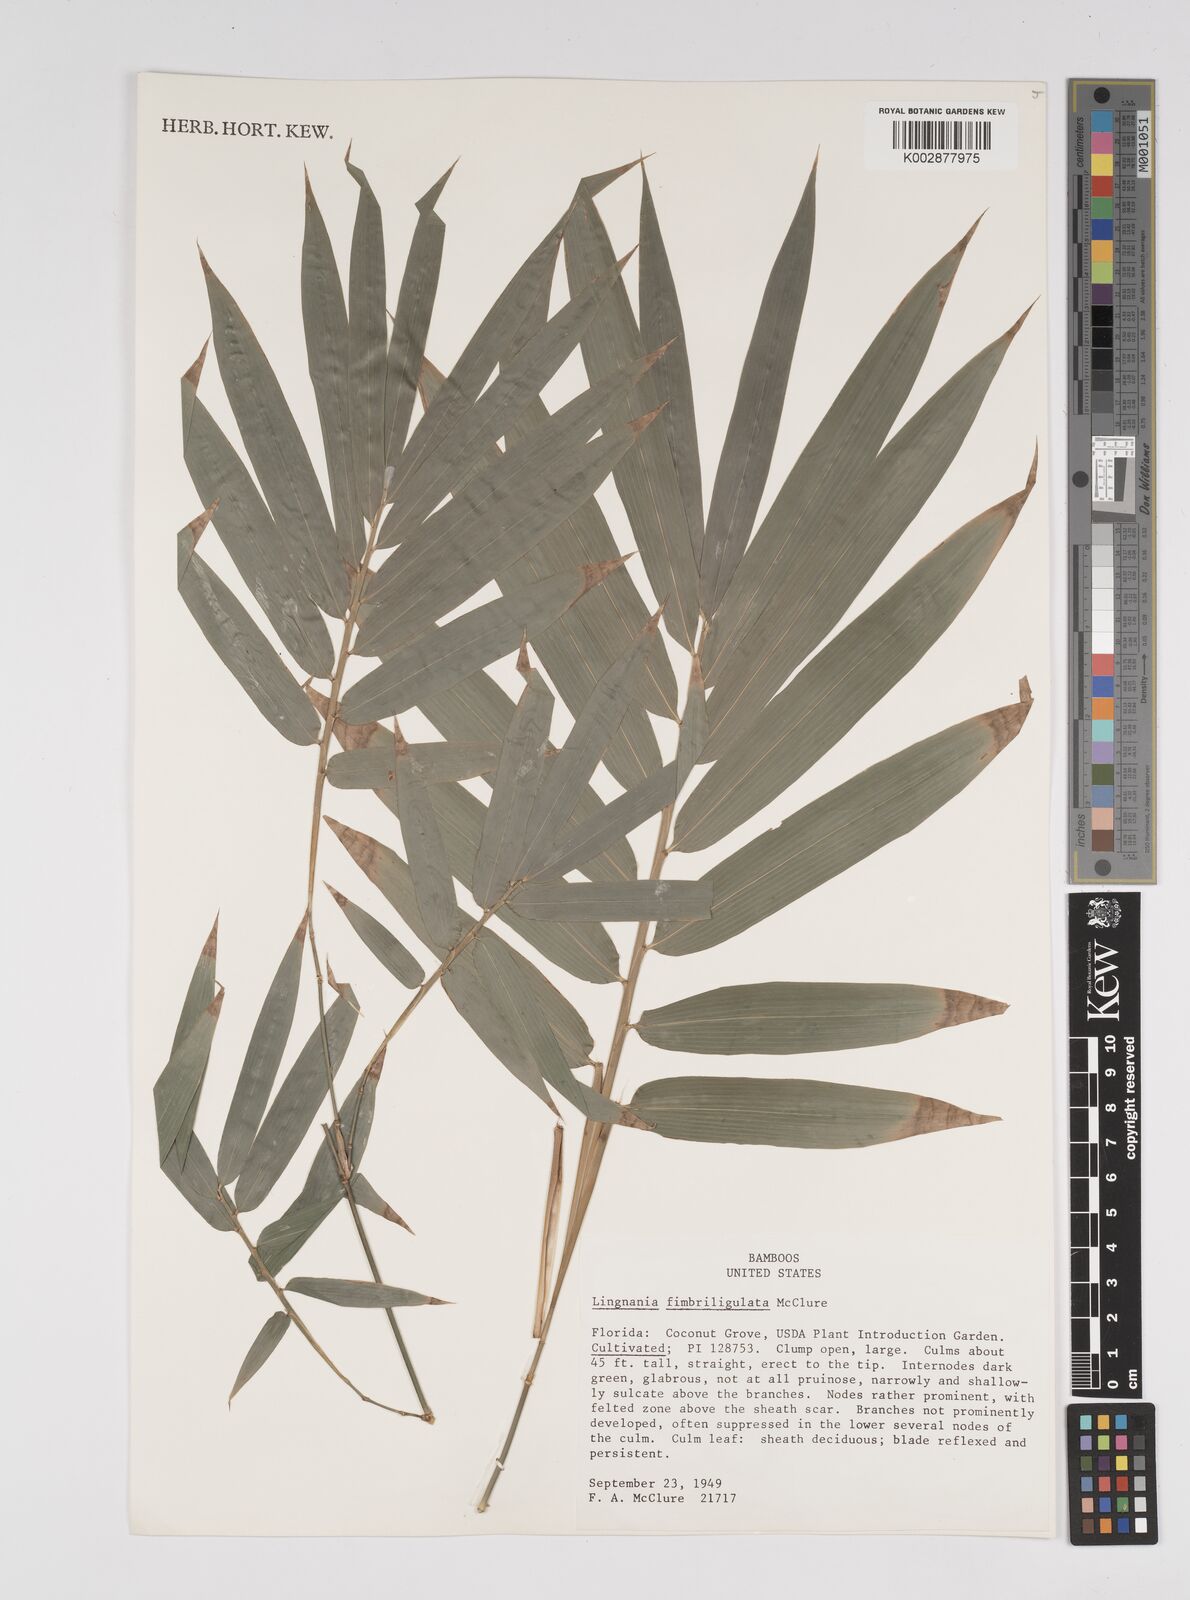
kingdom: Plantae
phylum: Tracheophyta
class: Liliopsida
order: Poales
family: Poaceae
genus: Bambusa
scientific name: Bambusa fimbriligulata
